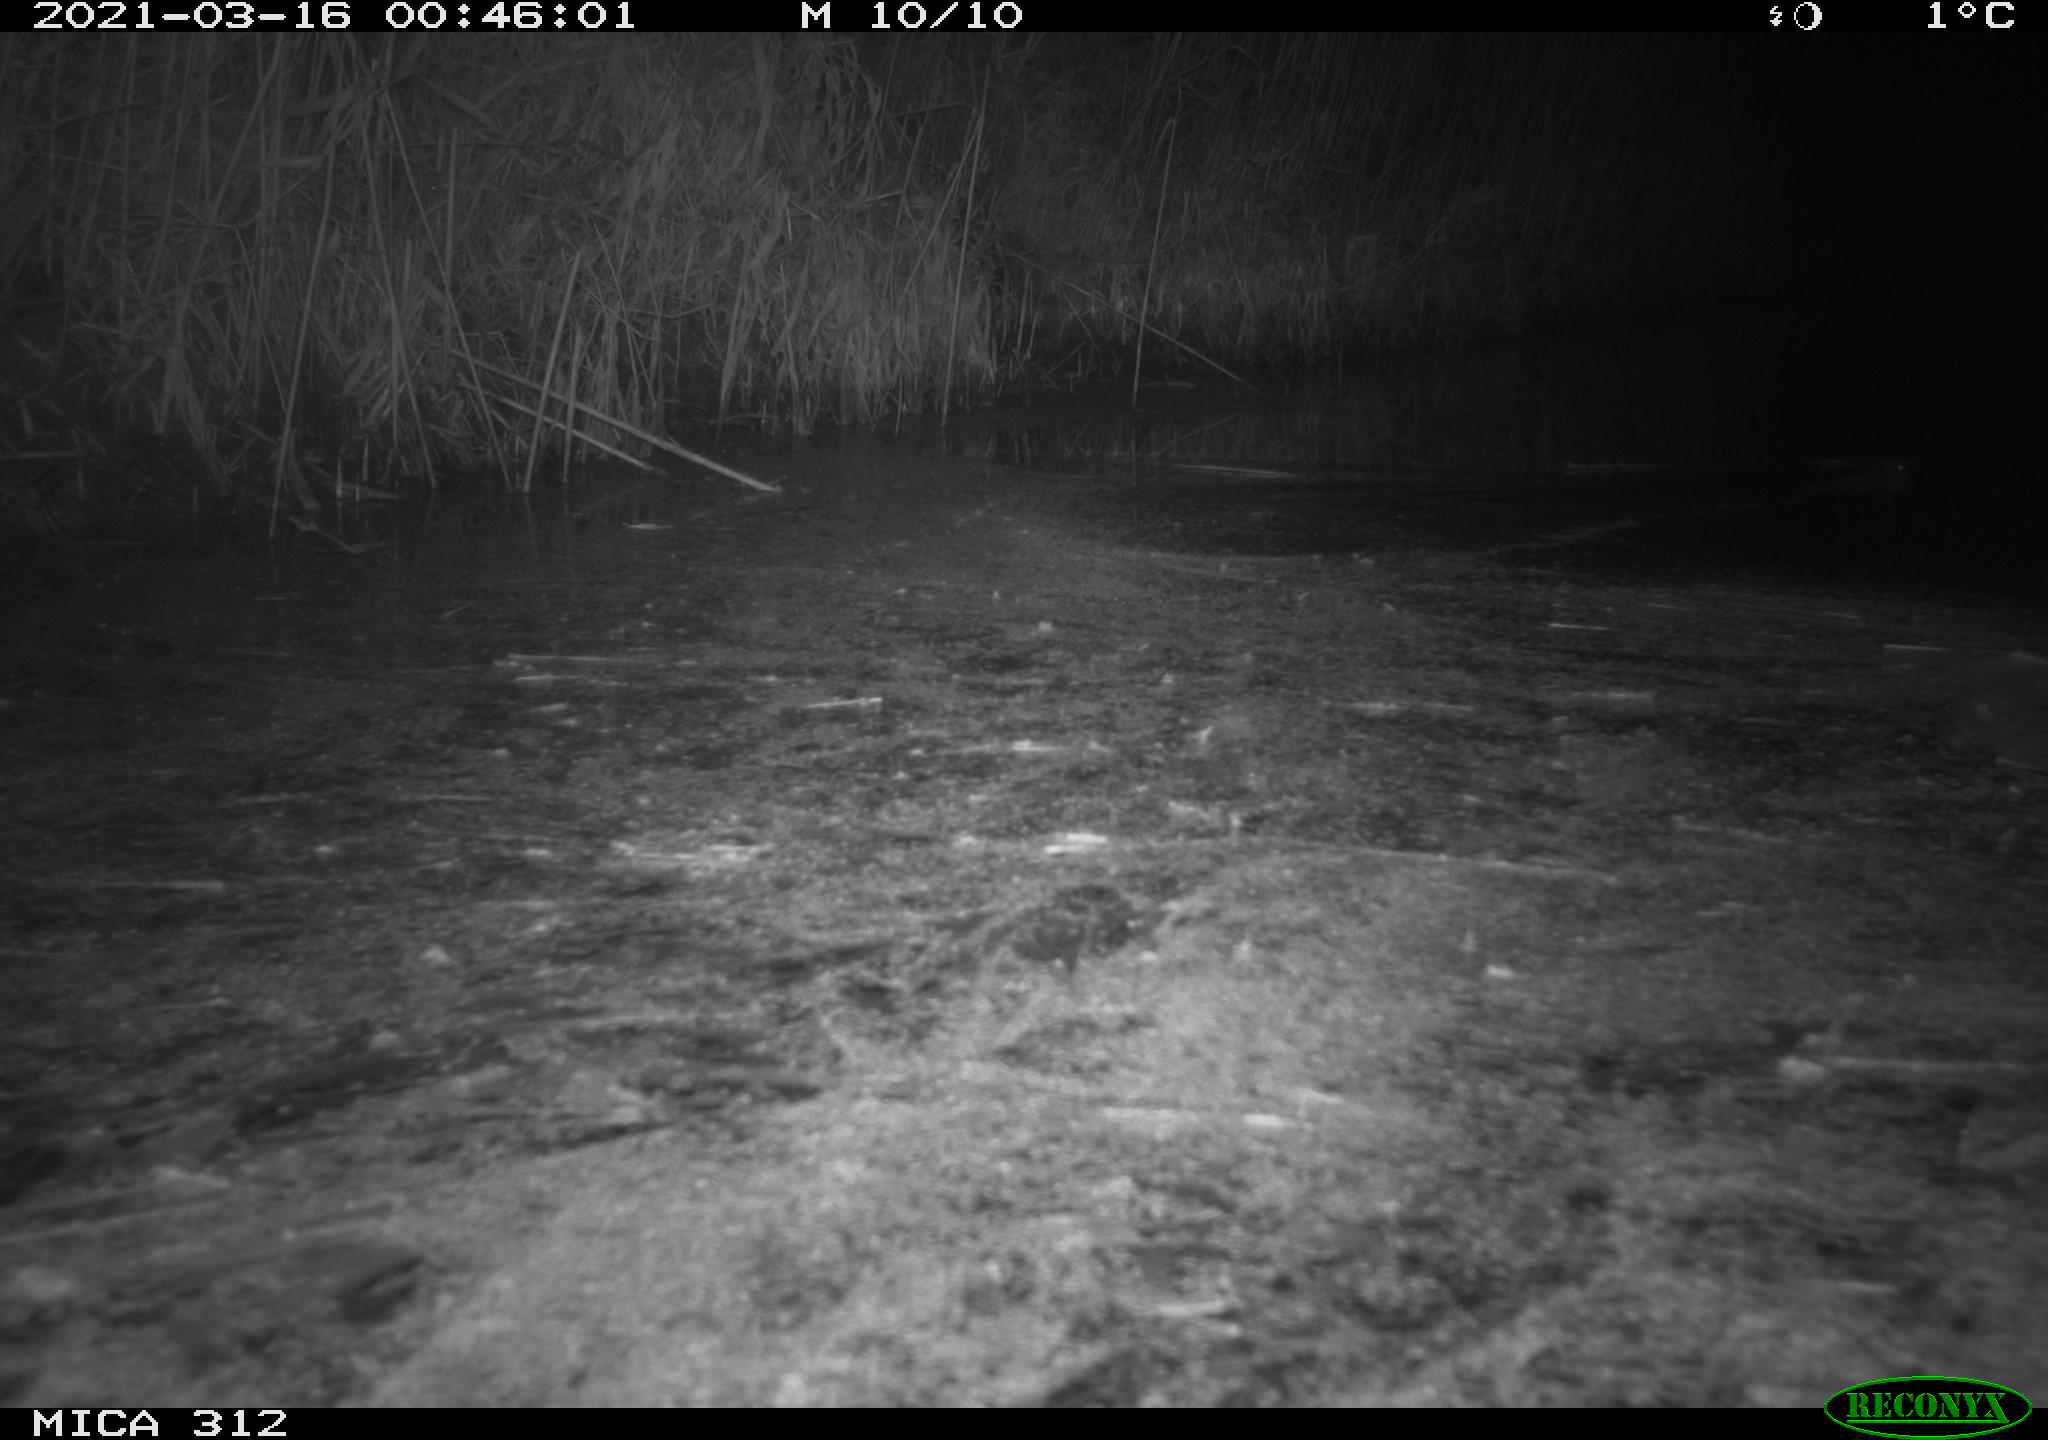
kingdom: Animalia
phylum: Chordata
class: Mammalia
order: Rodentia
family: Cricetidae
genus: Ondatra
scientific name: Ondatra zibethicus
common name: Muskrat
